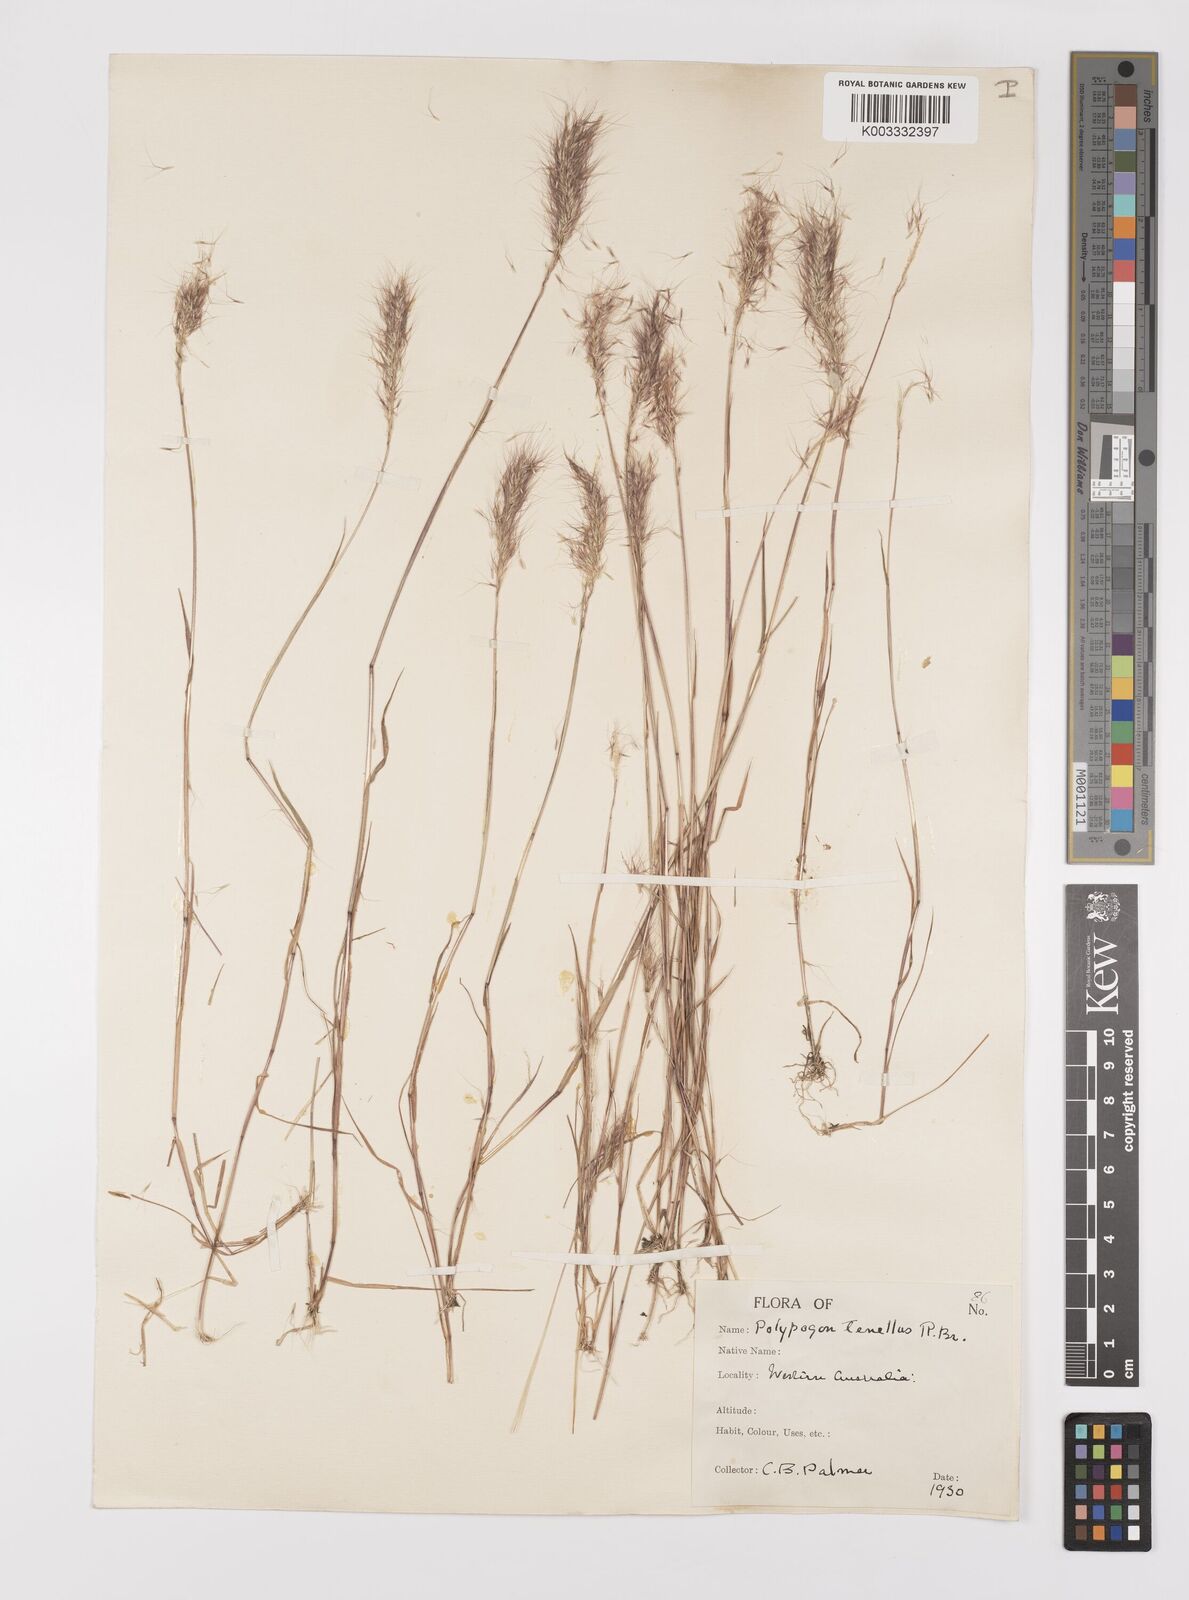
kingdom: Plantae
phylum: Tracheophyta
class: Liliopsida
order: Poales
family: Poaceae
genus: Polypogon
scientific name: Polypogon tenellus
